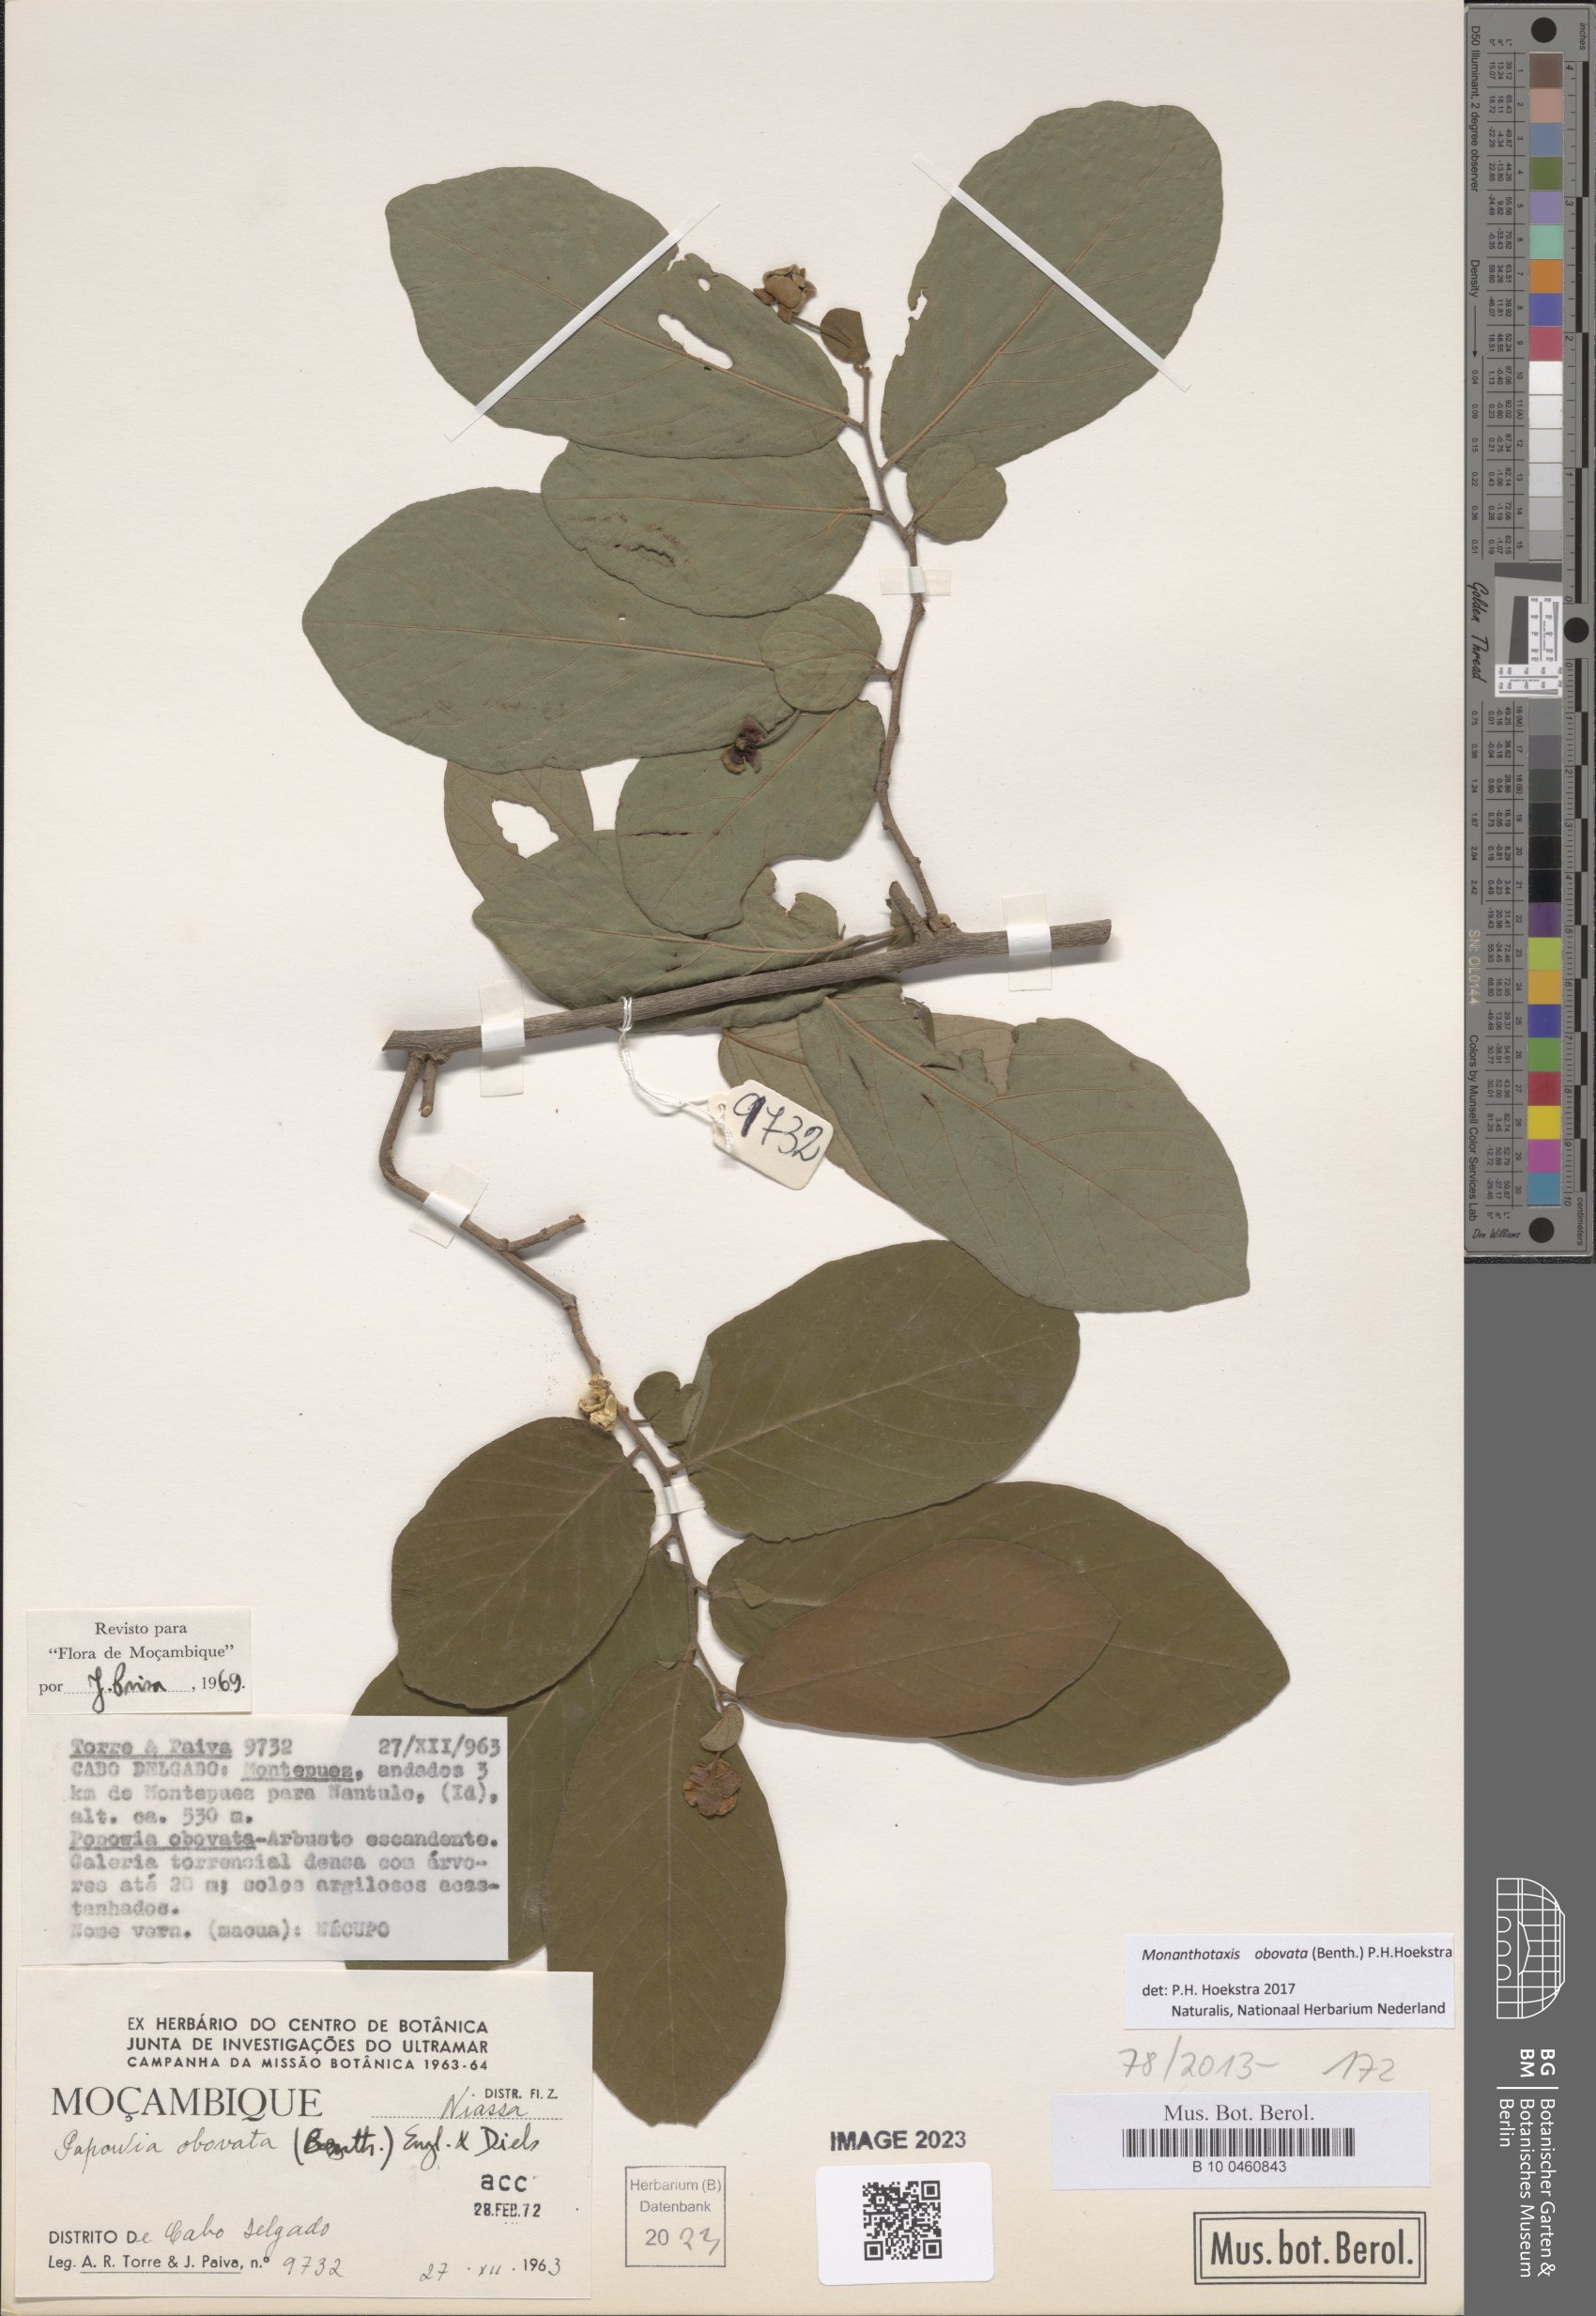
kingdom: Plantae
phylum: Tracheophyta
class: Magnoliopsida
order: Magnoliales
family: Annonaceae
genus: Friesodielsia
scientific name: Friesodielsia obovata
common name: Monkey fingers
